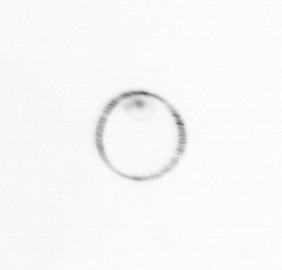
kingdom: Chromista
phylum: Myzozoa
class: Dinophyceae
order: Noctilucales
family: Noctilucaceae
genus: Noctiluca
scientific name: Noctiluca scintillans
